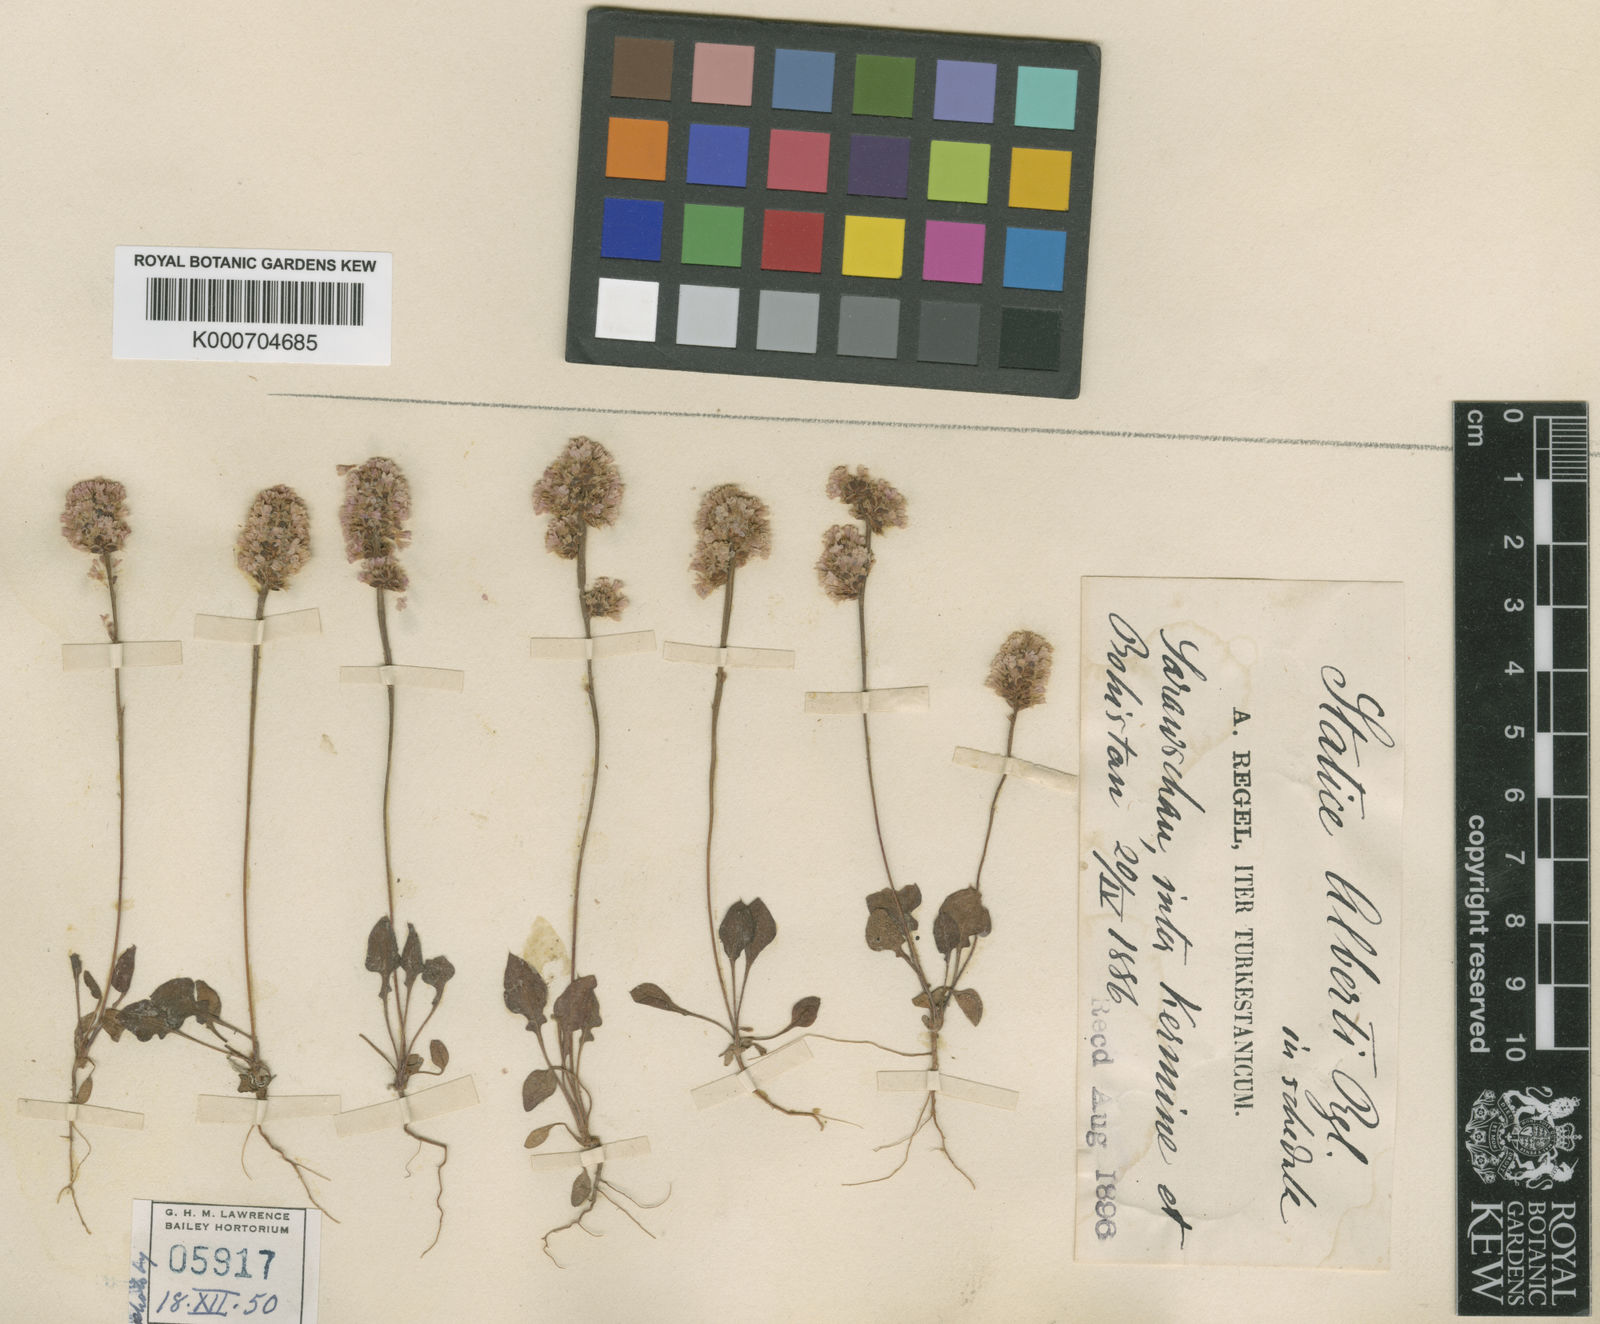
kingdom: Plantae
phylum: Tracheophyta
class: Magnoliopsida
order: Caryophyllales
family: Plumbaginaceae
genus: Psylliostachys
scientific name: Psylliostachys
